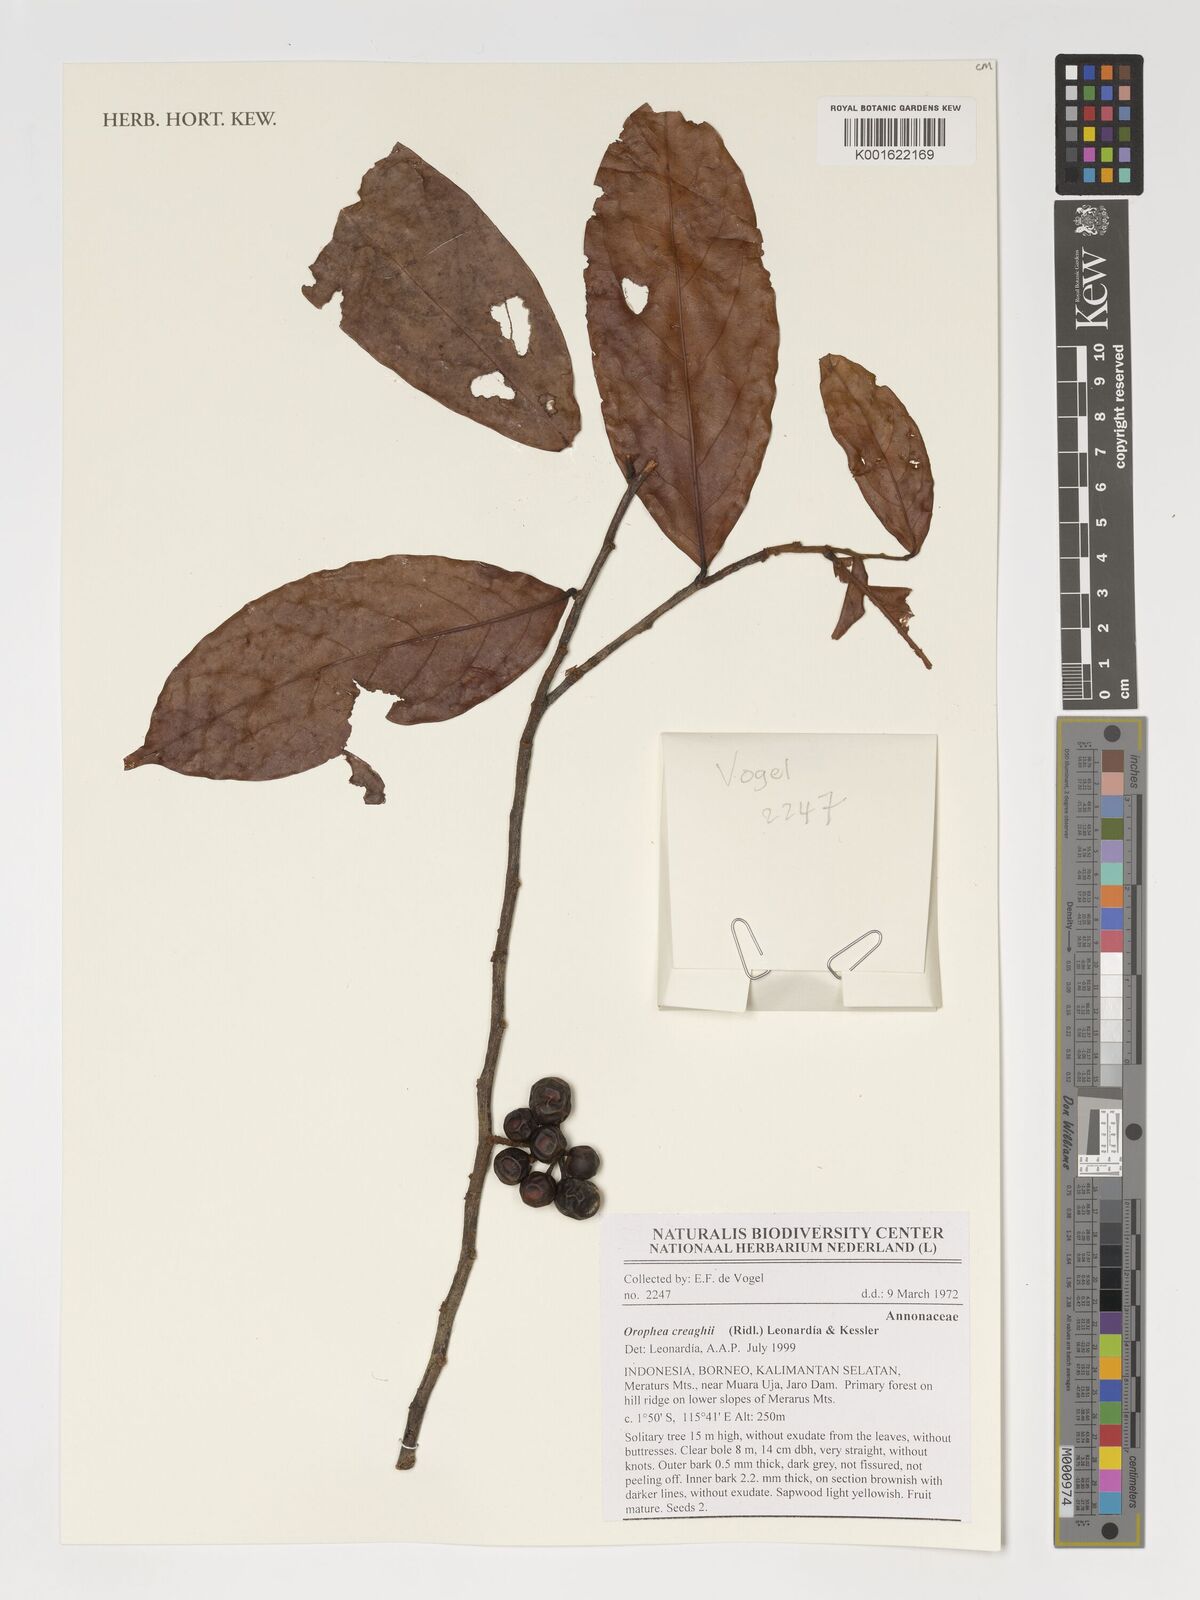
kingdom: Plantae
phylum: Tracheophyta
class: Magnoliopsida
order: Magnoliales
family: Annonaceae
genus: Orophea
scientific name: Orophea creaghii
